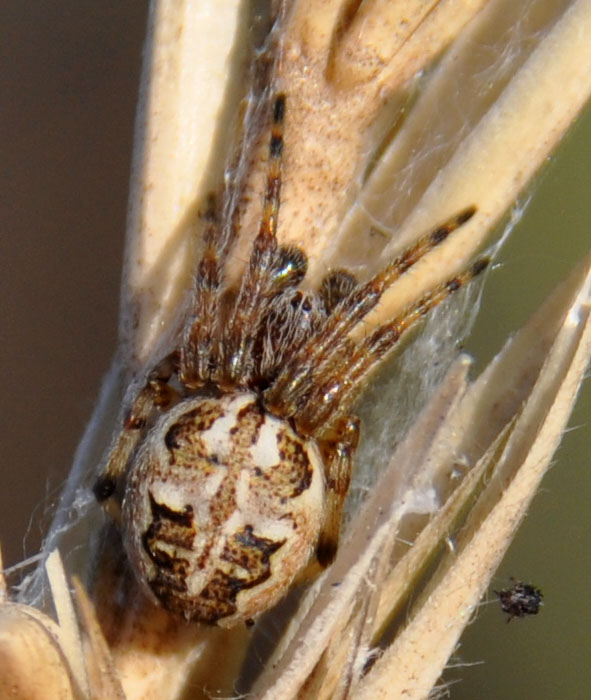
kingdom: Animalia
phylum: Arthropoda
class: Arachnida
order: Araneae
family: Araneidae
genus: Larinioides
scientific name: Larinioides cornutus
